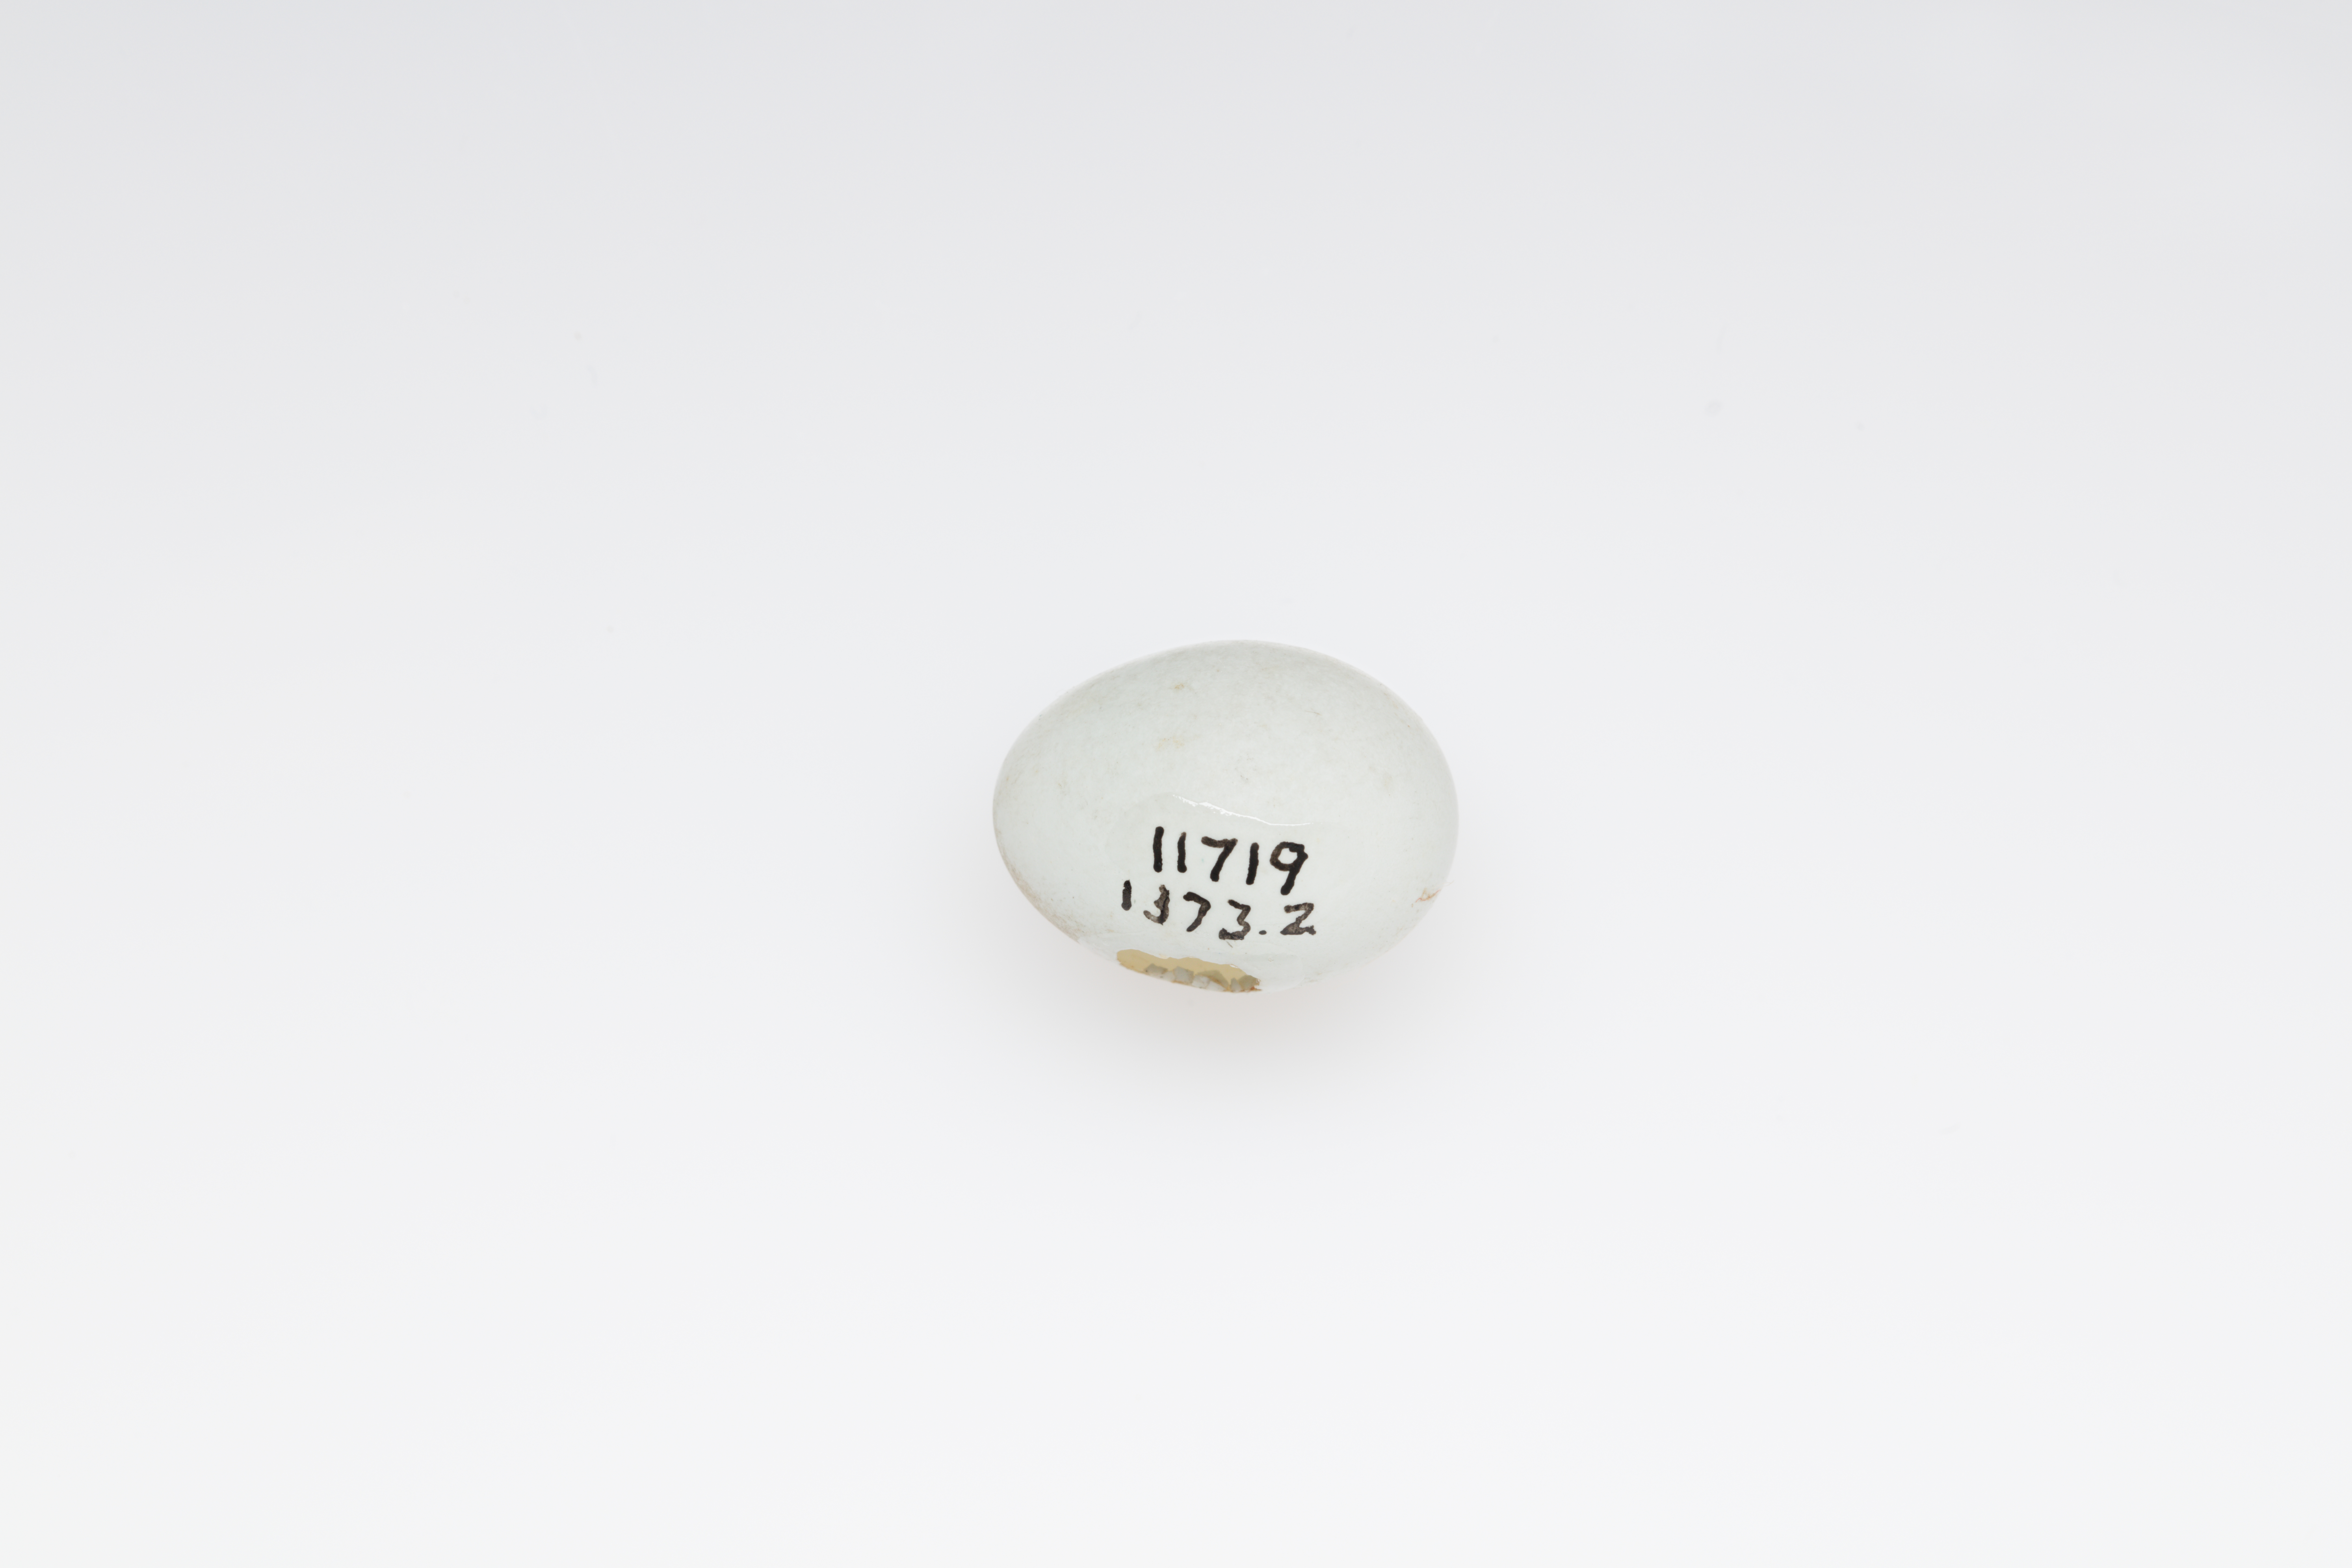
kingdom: Animalia
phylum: Chordata
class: Aves
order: Passeriformes
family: Zosteropidae
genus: Zosterops
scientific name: Zosterops tenuirostris
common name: Slender-billed white-eye
